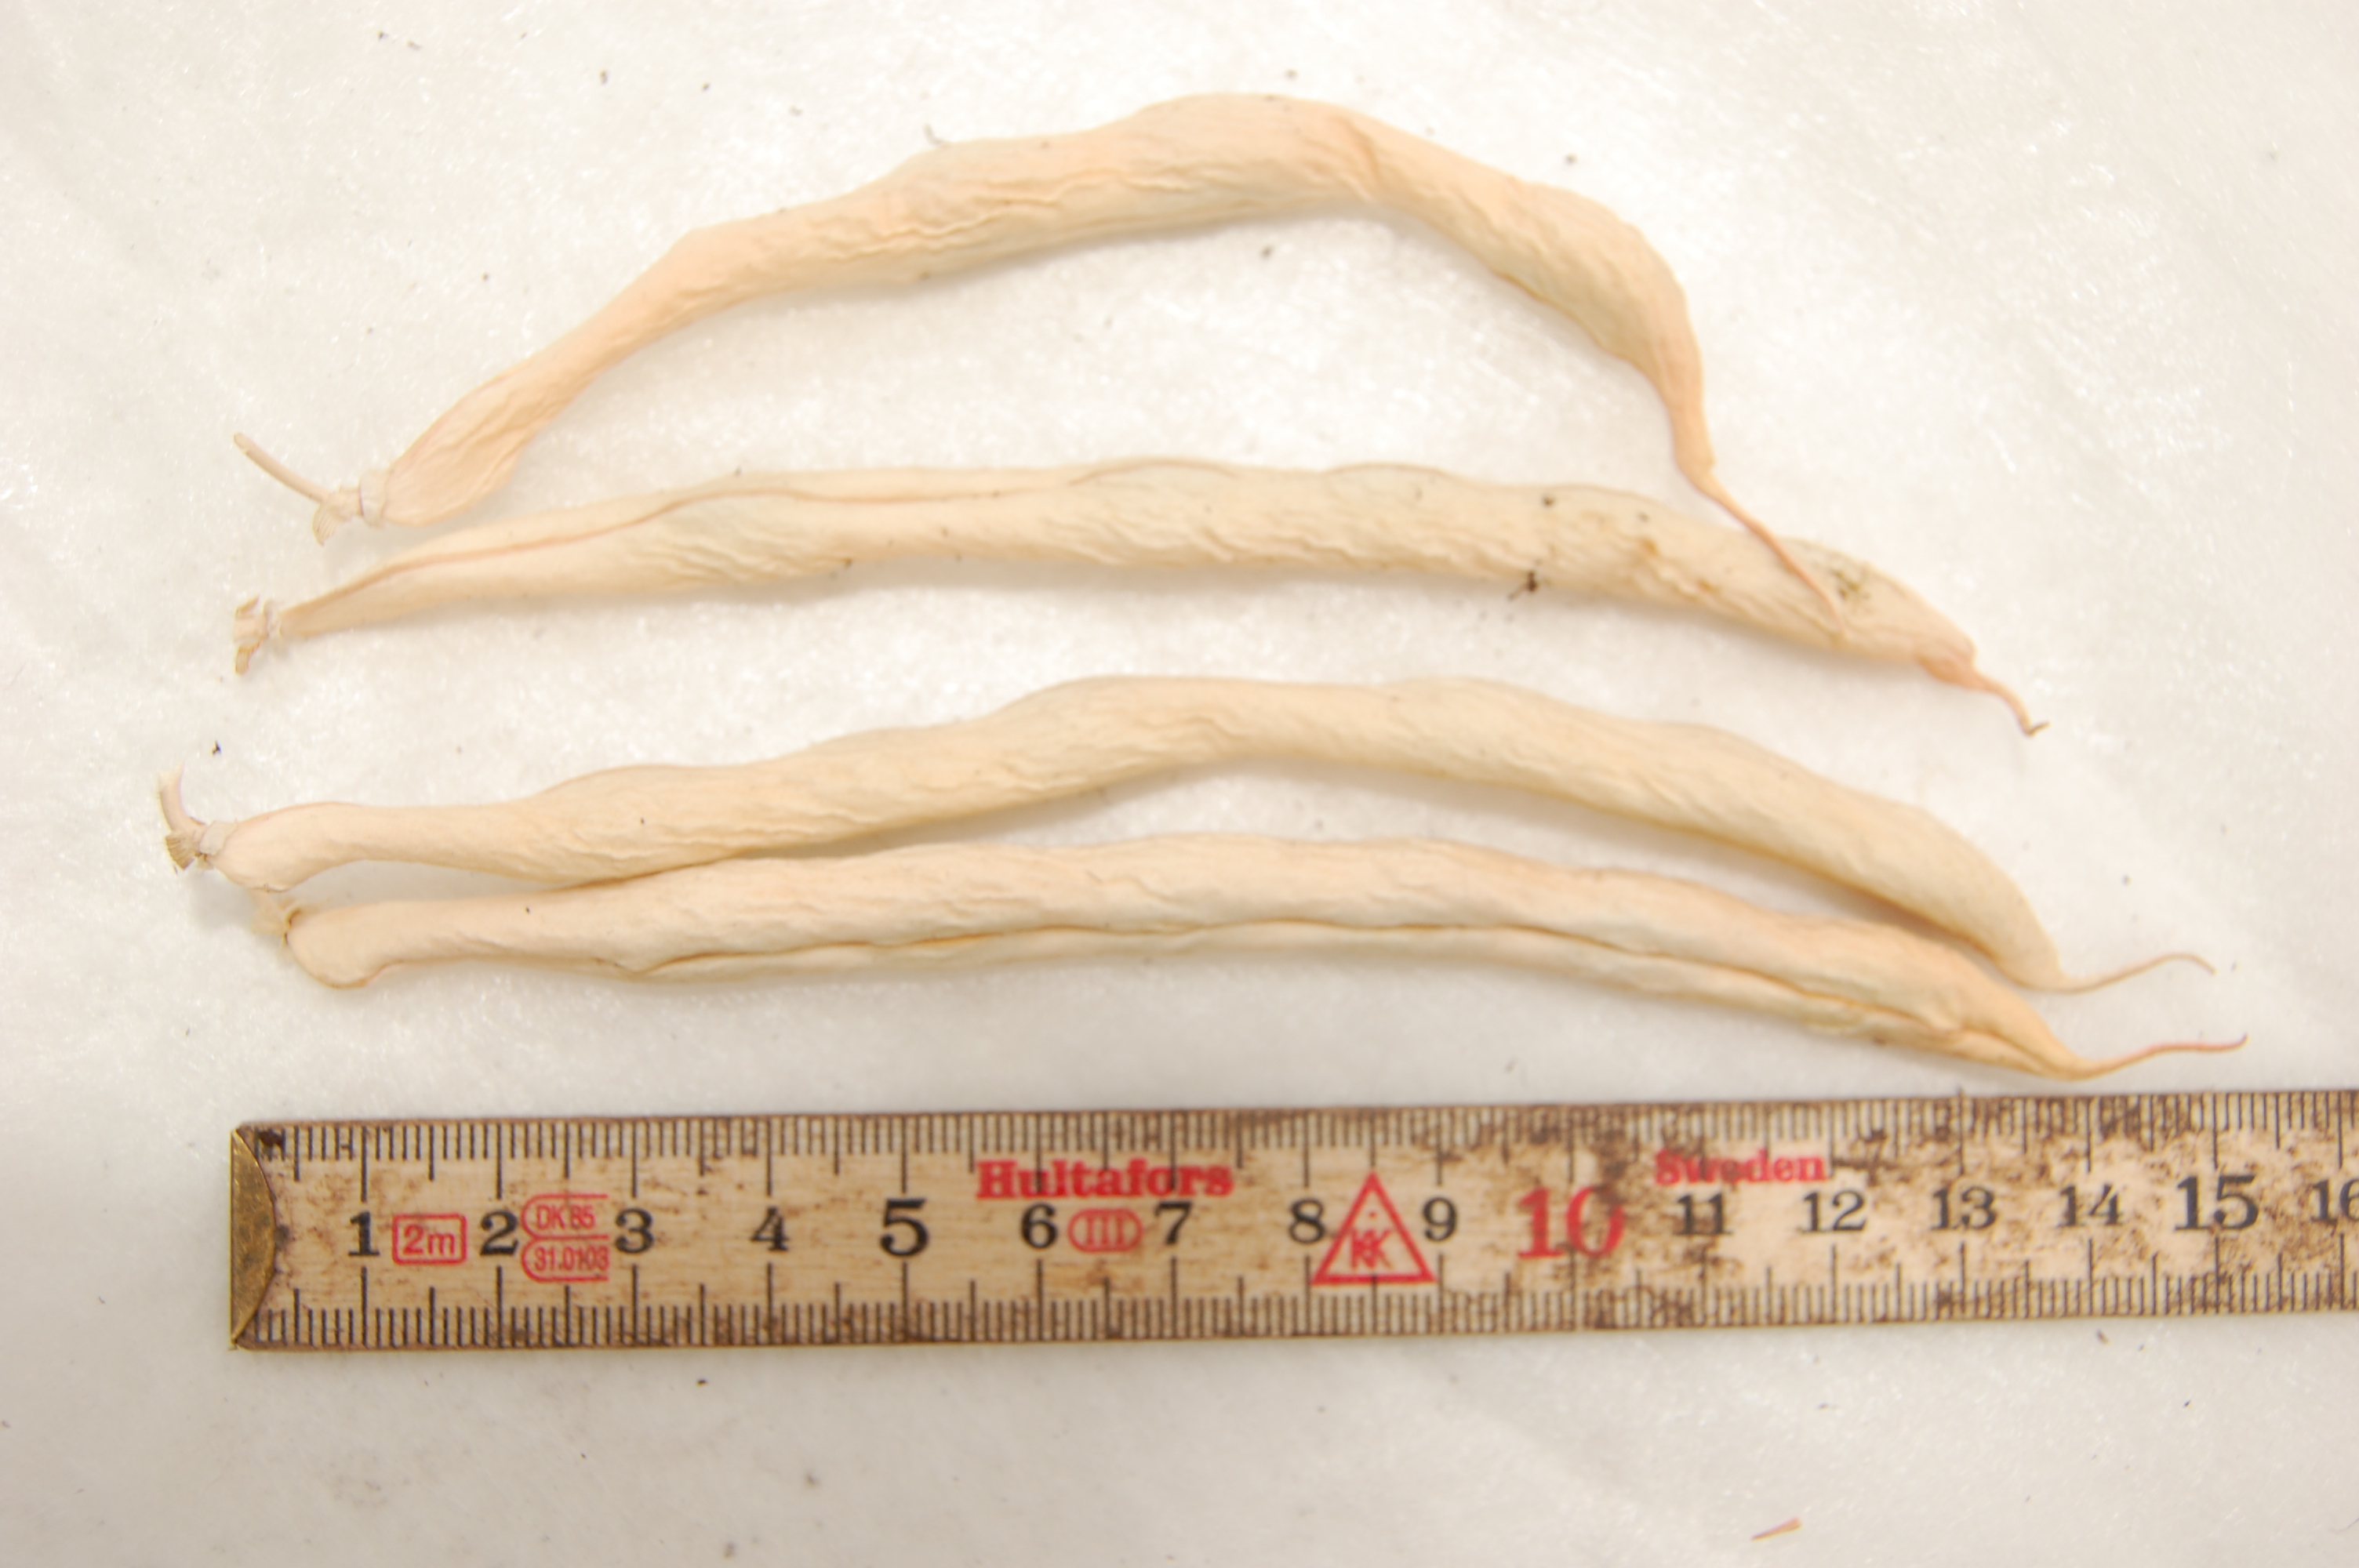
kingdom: Plantae
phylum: Tracheophyta
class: Magnoliopsida
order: Fabales
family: Fabaceae
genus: Phaseolus
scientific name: Phaseolus vulgaris
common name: Bean
